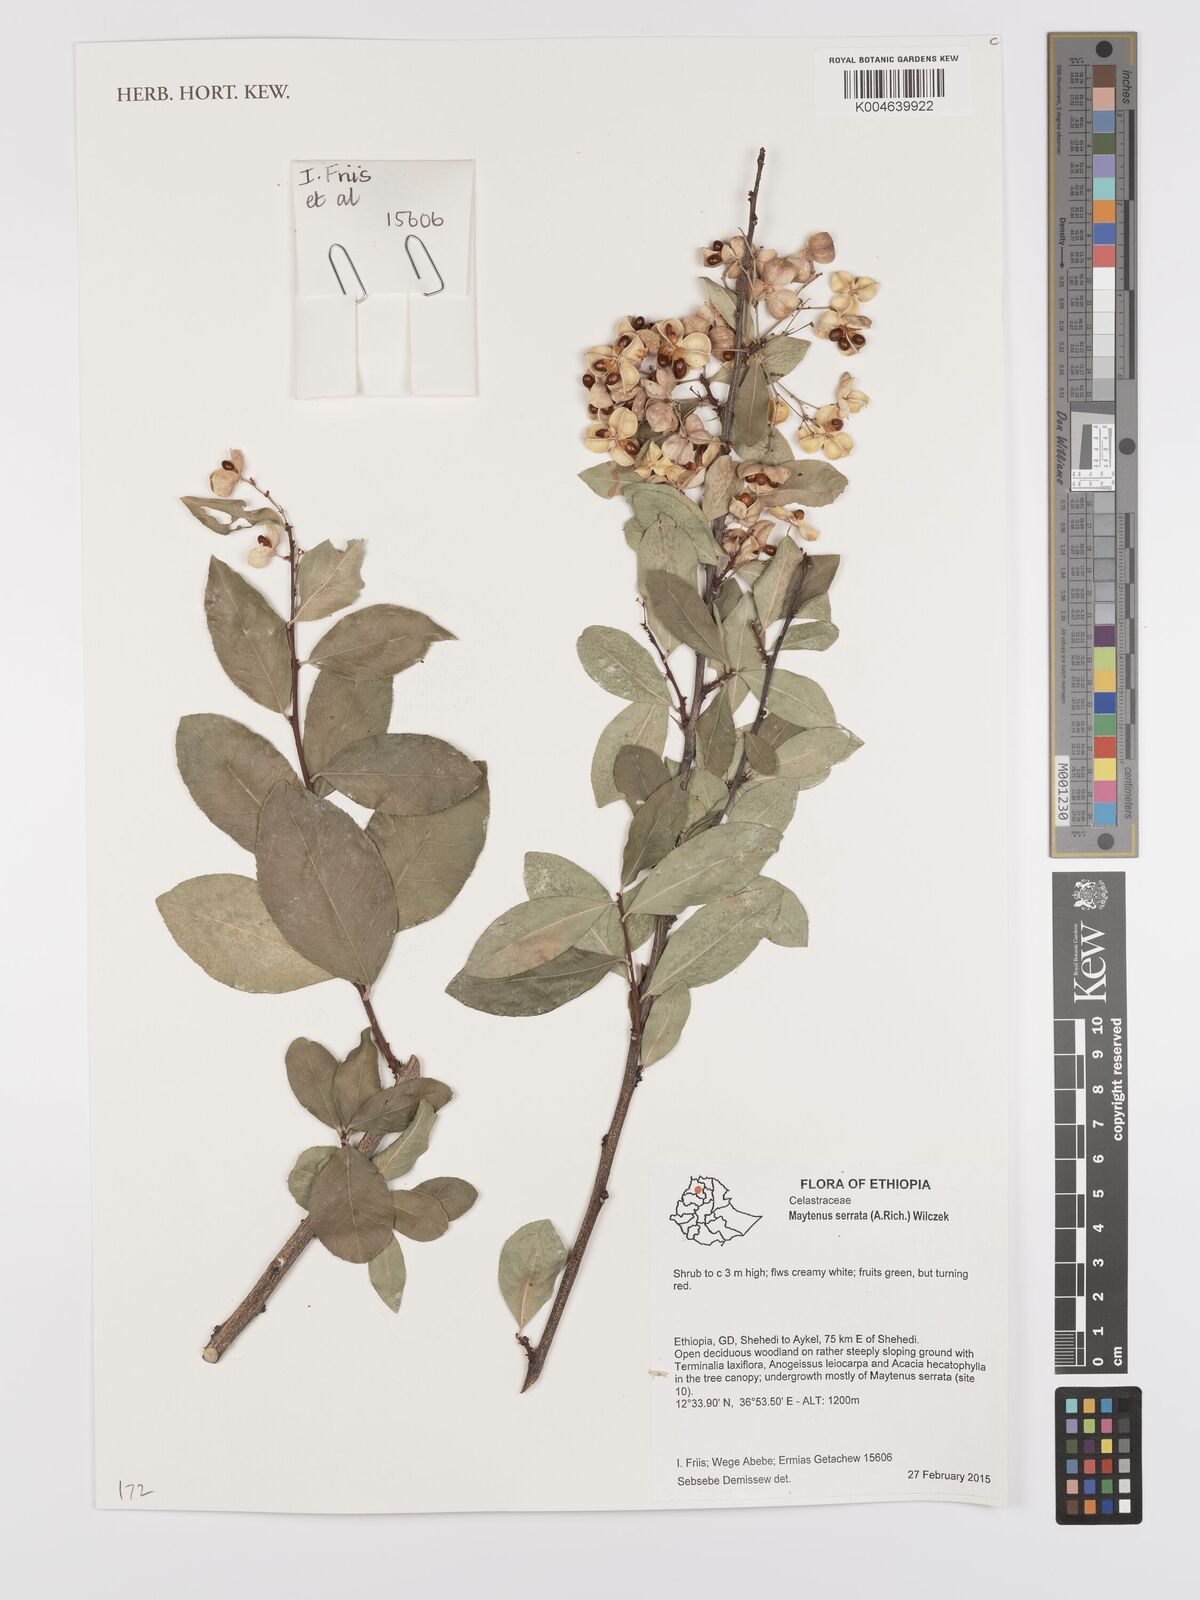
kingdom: Plantae
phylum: Tracheophyta
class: Magnoliopsida
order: Celastrales
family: Celastraceae
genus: Gymnosporia
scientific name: Gymnosporia serrata
